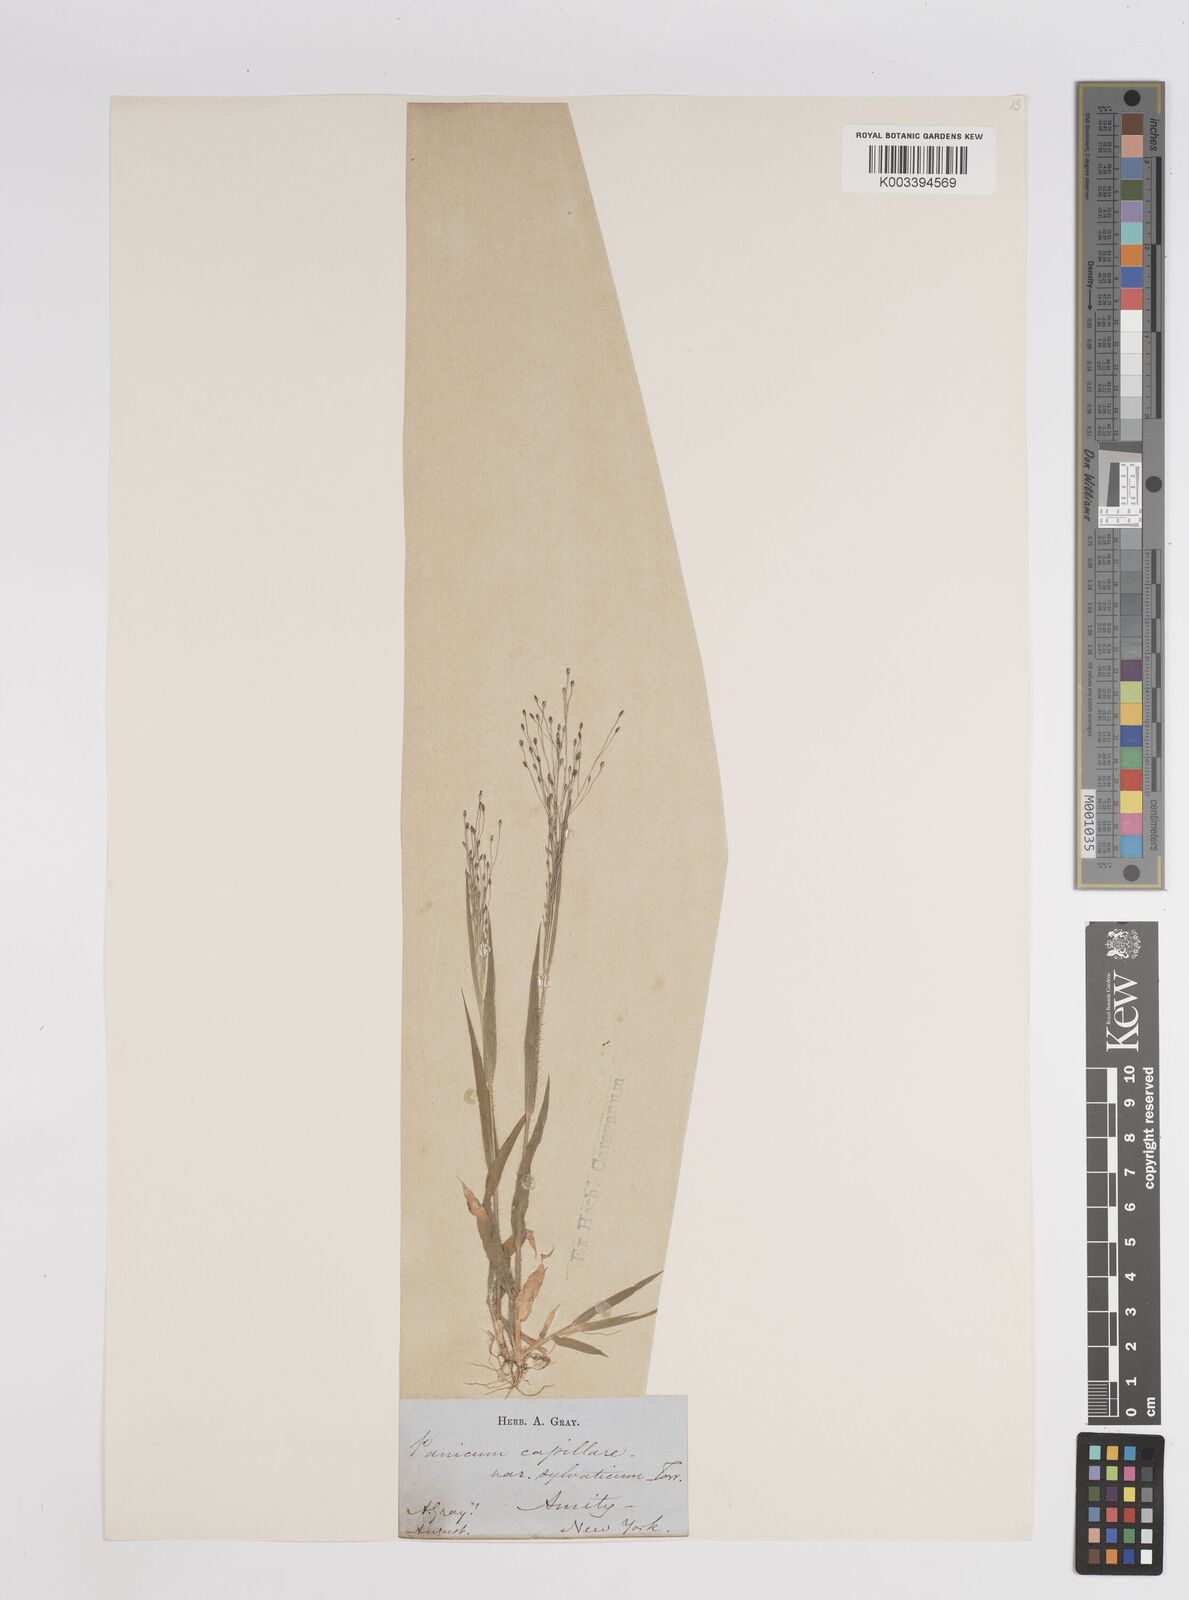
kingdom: Plantae
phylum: Tracheophyta
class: Liliopsida
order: Poales
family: Poaceae
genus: Panicum
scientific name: Panicum flexile
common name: Wiry panicgrass
